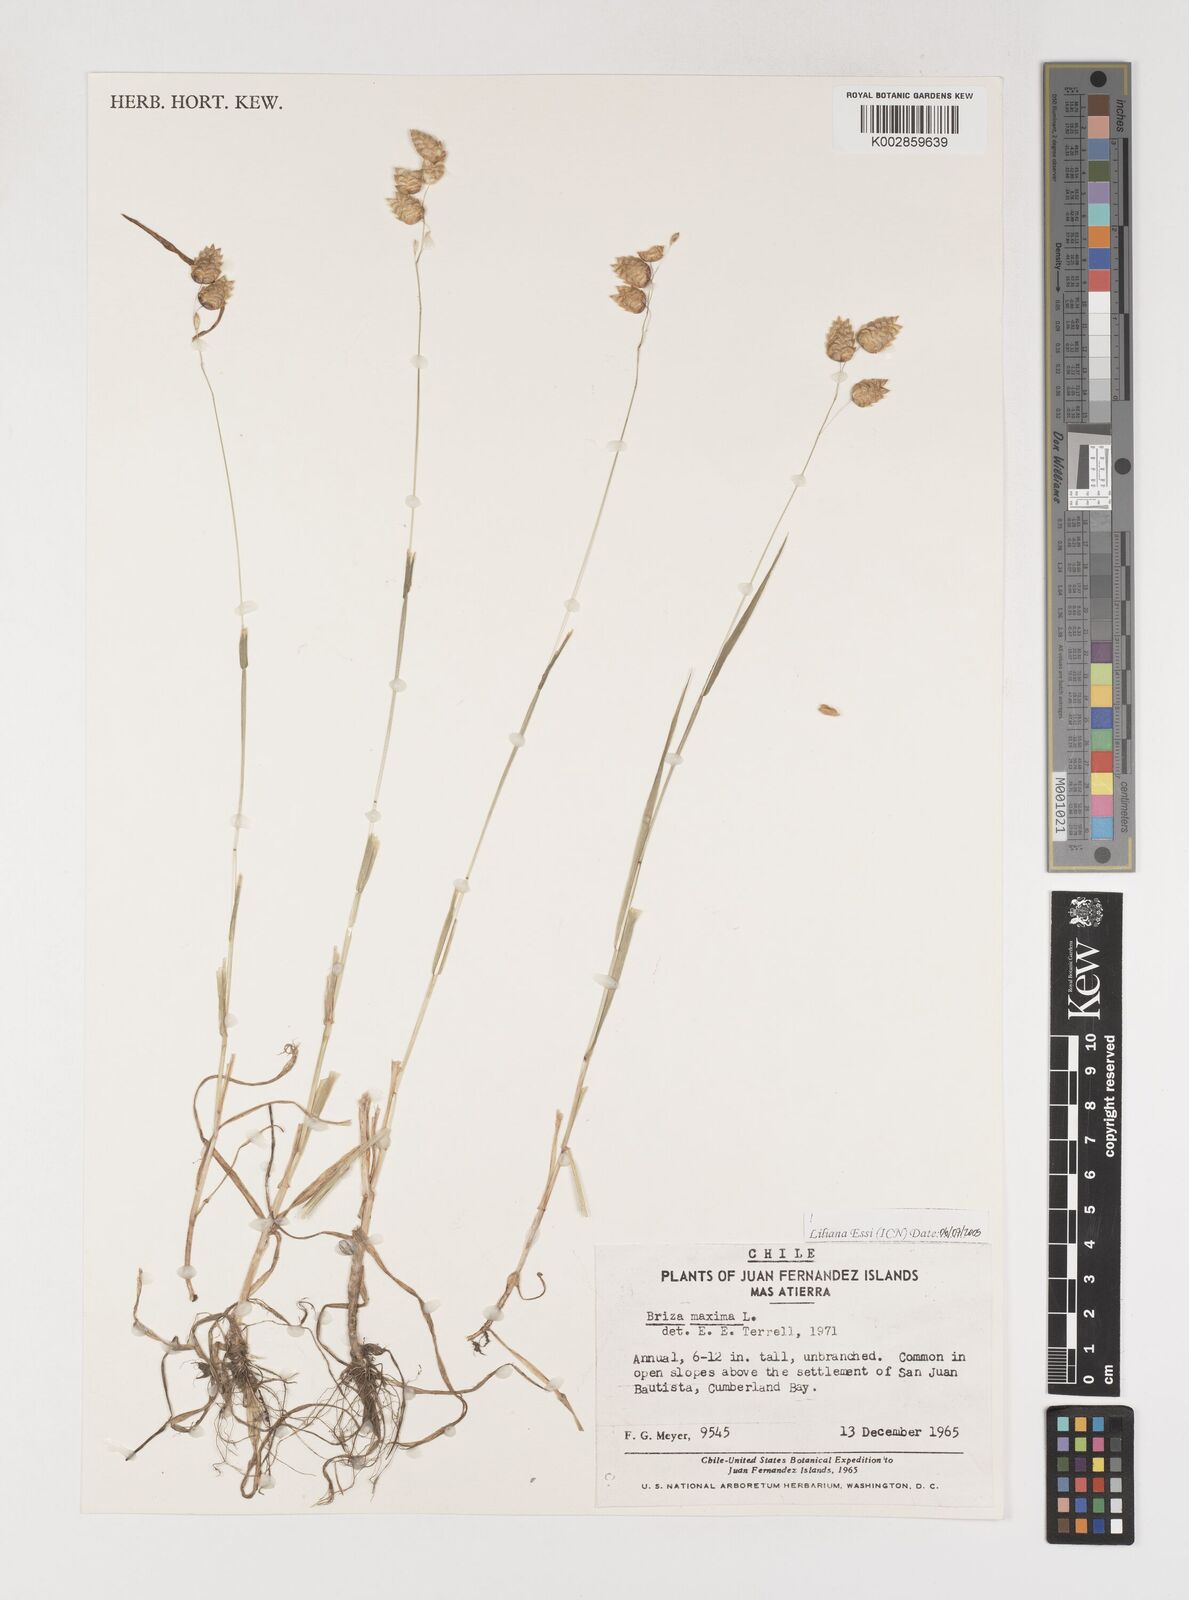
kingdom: Plantae
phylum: Tracheophyta
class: Liliopsida
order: Poales
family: Poaceae
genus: Briza
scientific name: Briza maxima
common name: Big quakinggrass
